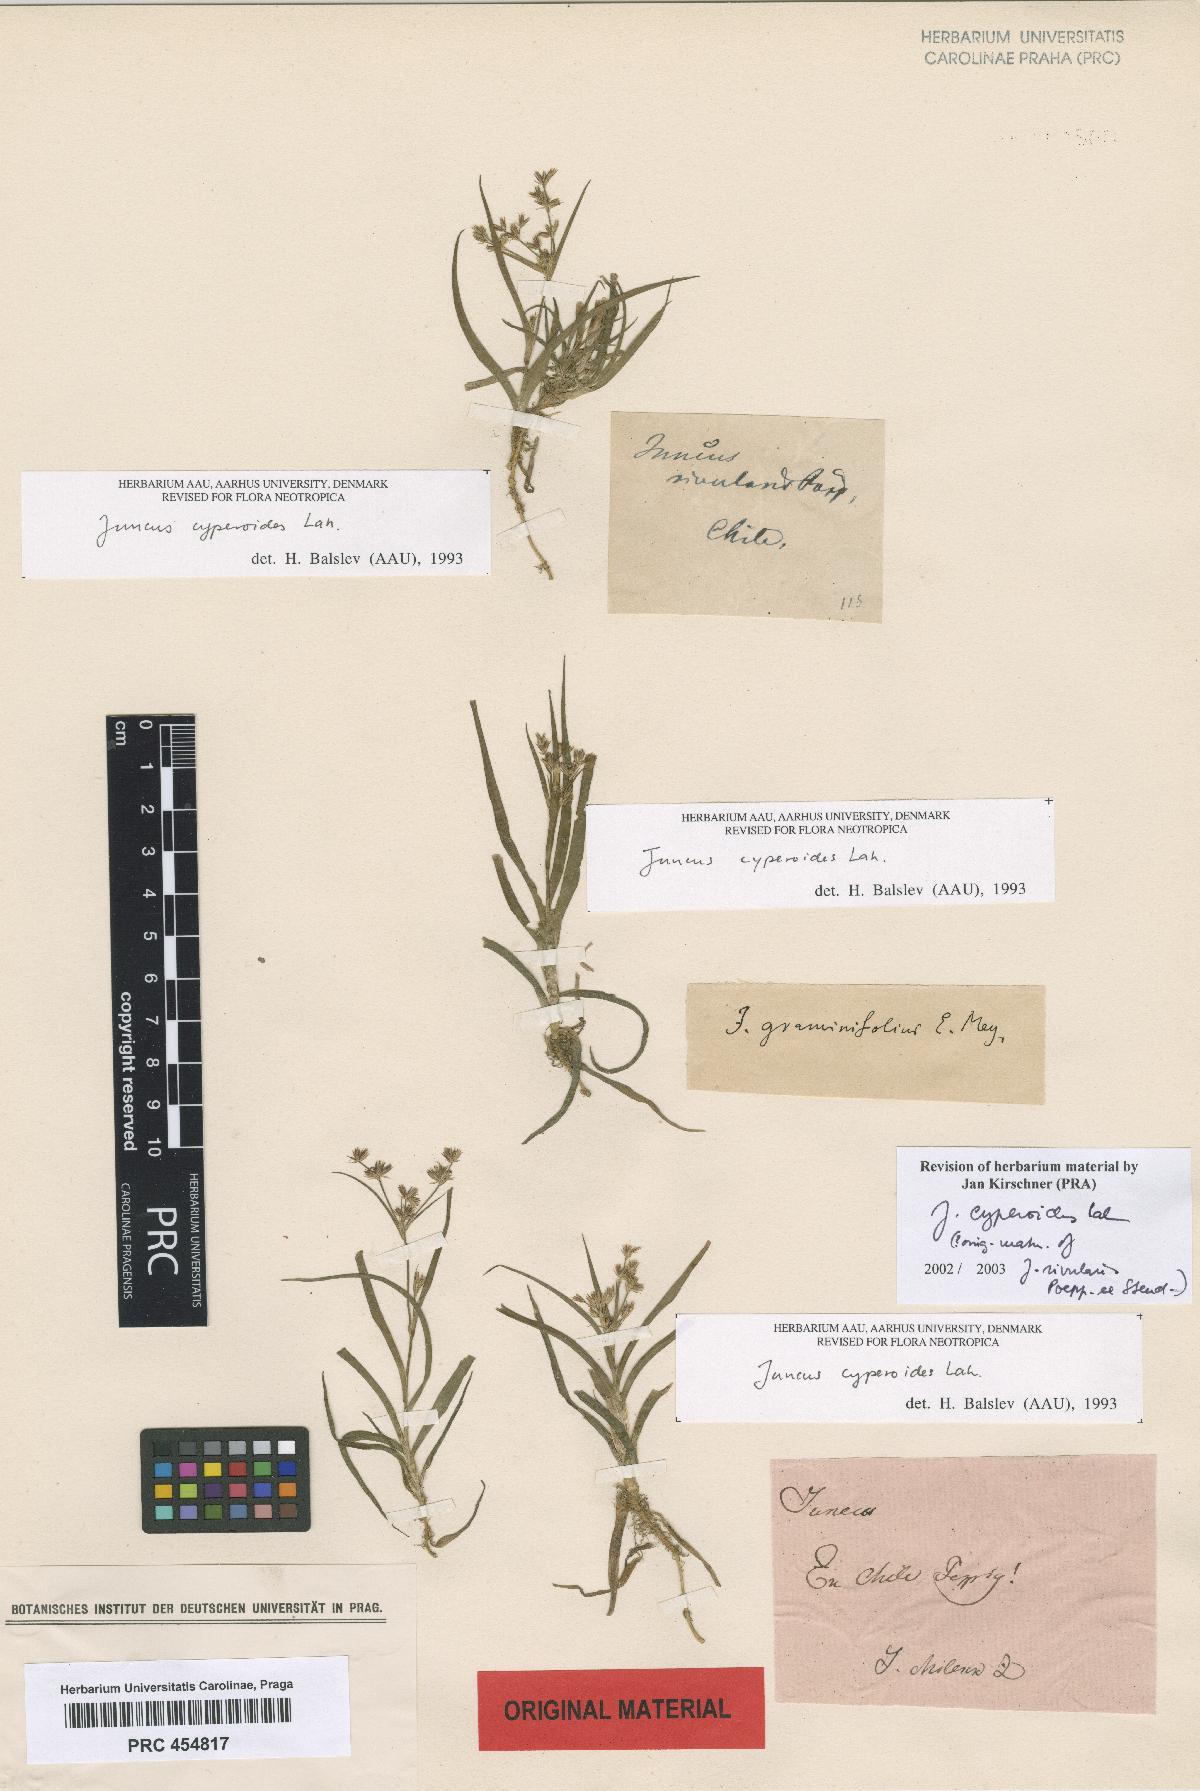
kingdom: Plantae
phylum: Tracheophyta
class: Liliopsida
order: Poales
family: Juncaceae
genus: Juncus
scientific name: Juncus cyperoides
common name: Forbestown rush
